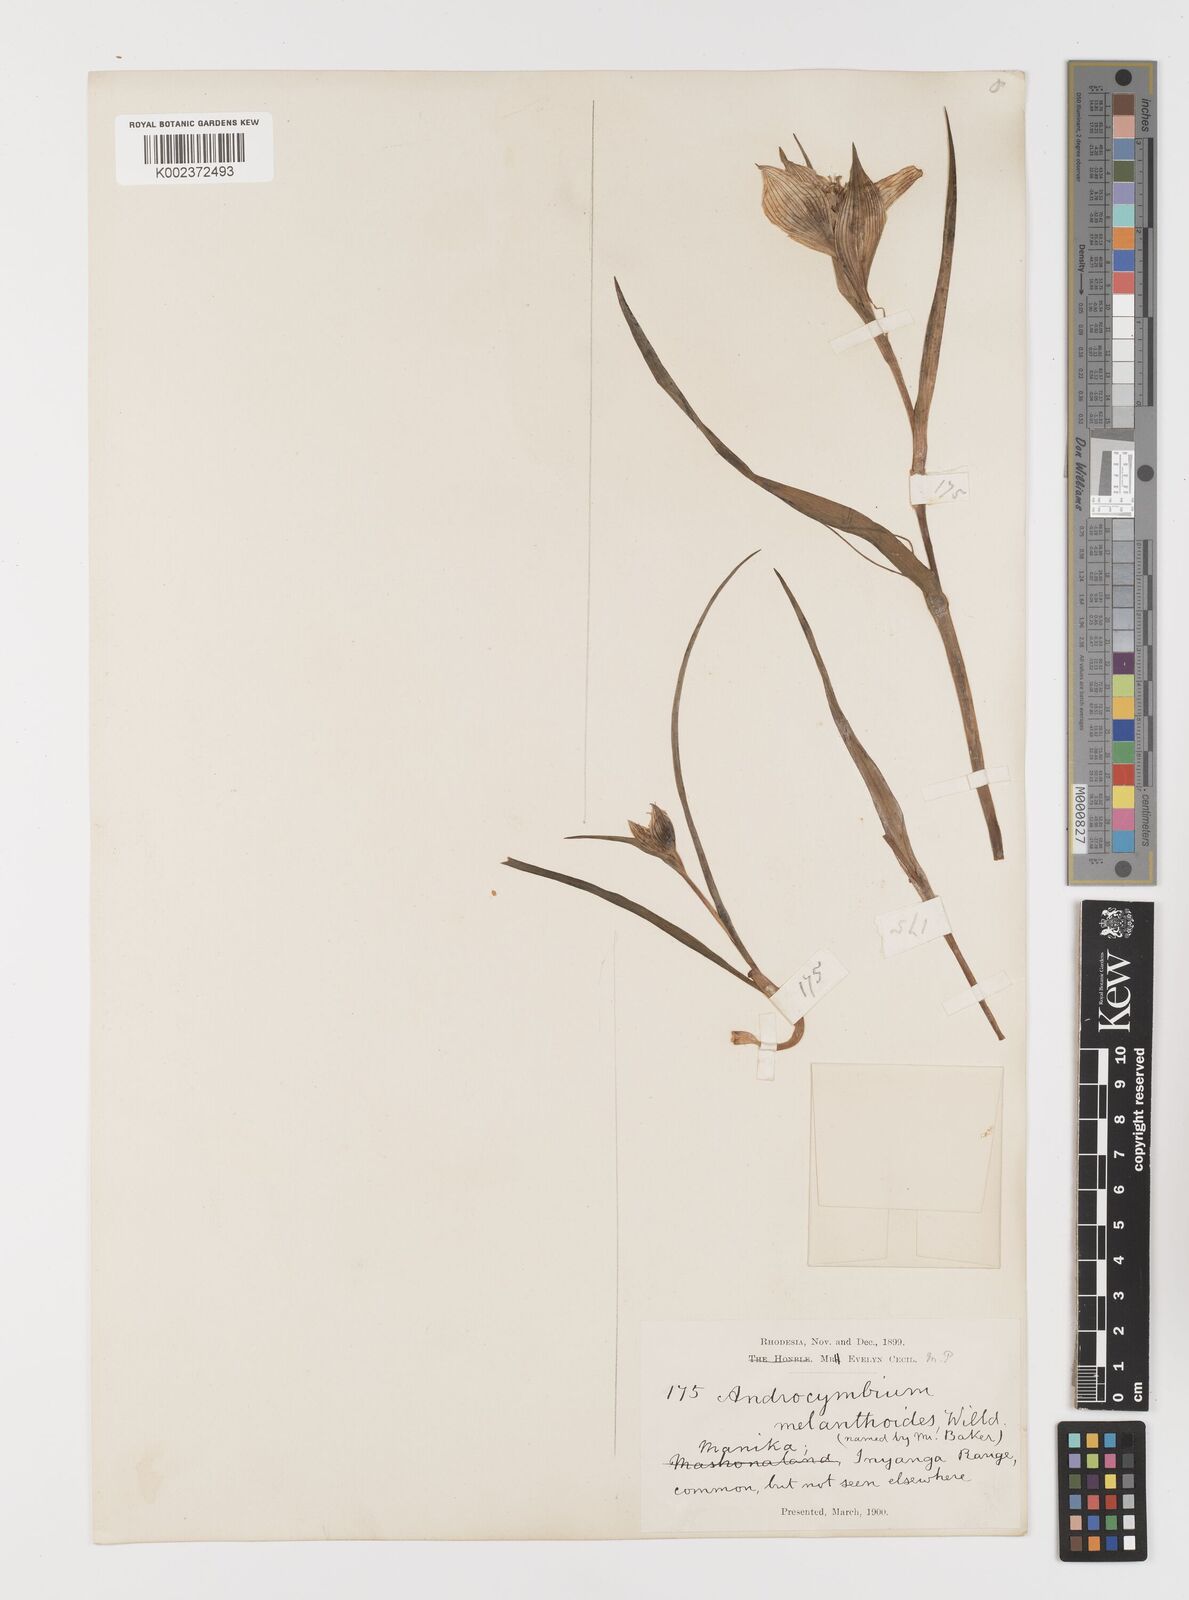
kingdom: Plantae
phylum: Tracheophyta
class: Liliopsida
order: Liliales
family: Colchicaceae
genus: Colchicum
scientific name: Colchicum striatum
